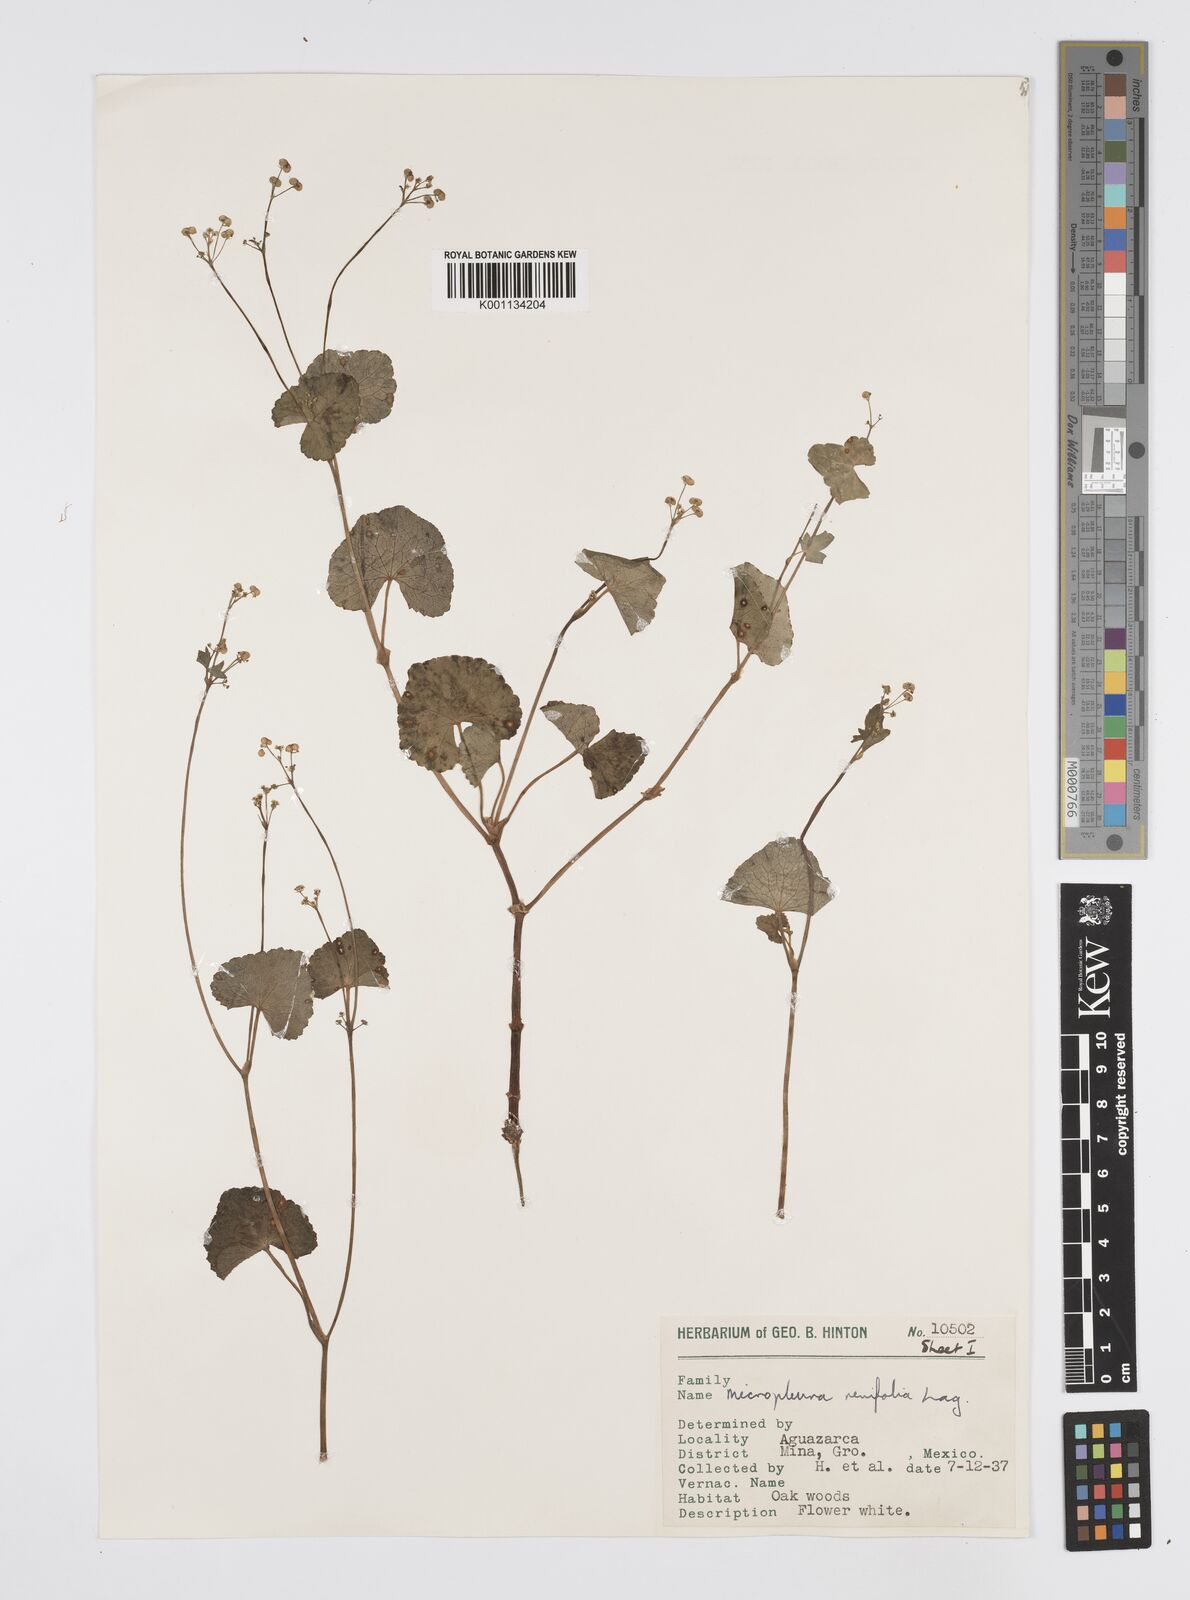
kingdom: Plantae
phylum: Tracheophyta
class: Magnoliopsida
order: Apiales
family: Apiaceae
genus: Micropleura
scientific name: Micropleura renifolia
